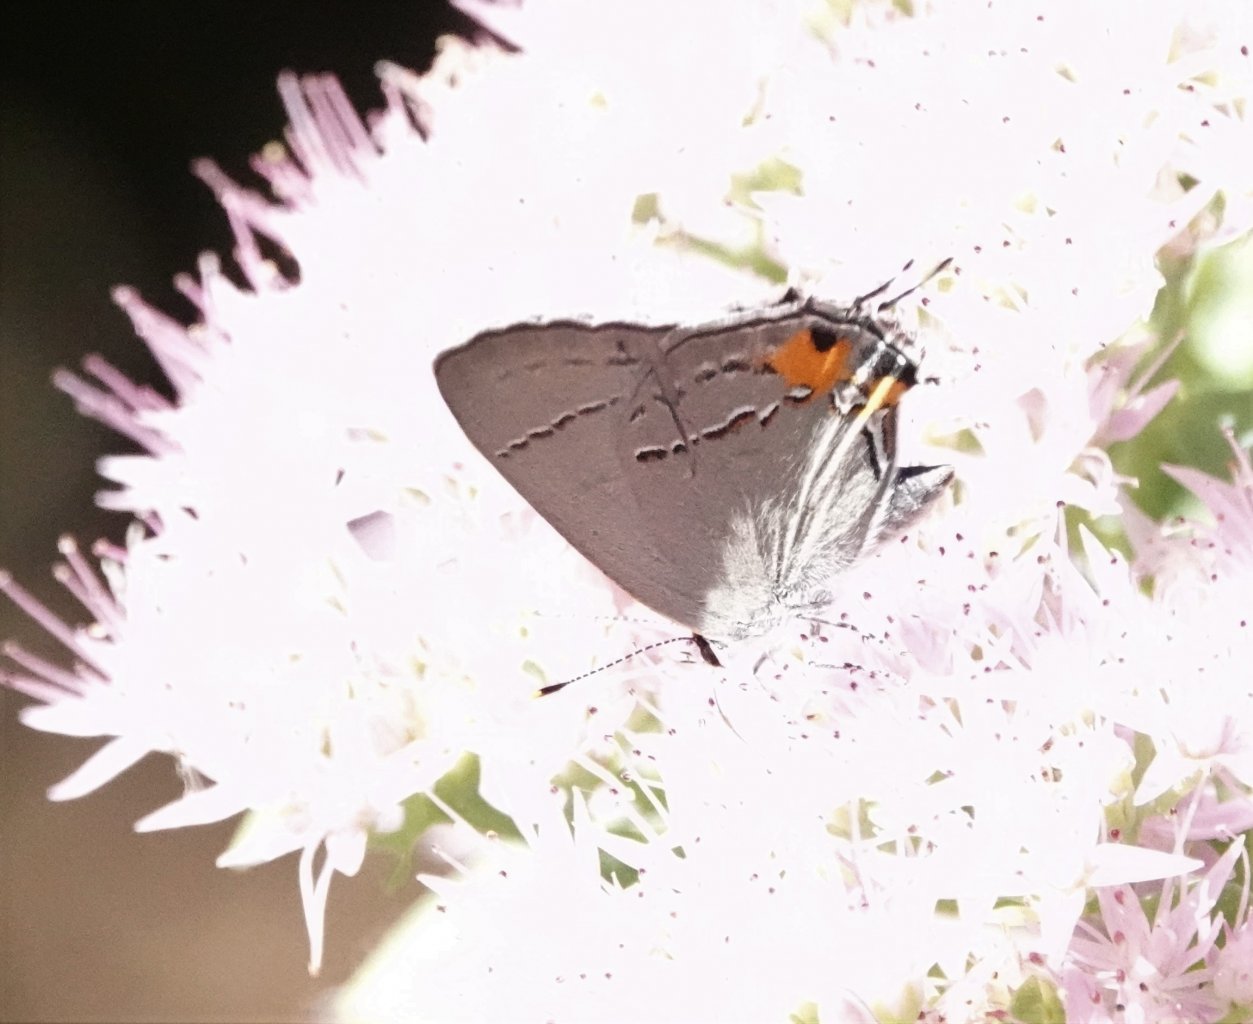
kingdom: Animalia
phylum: Arthropoda
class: Insecta
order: Lepidoptera
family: Lycaenidae
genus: Strymon
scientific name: Strymon melinus
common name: Gray Hairstreak
